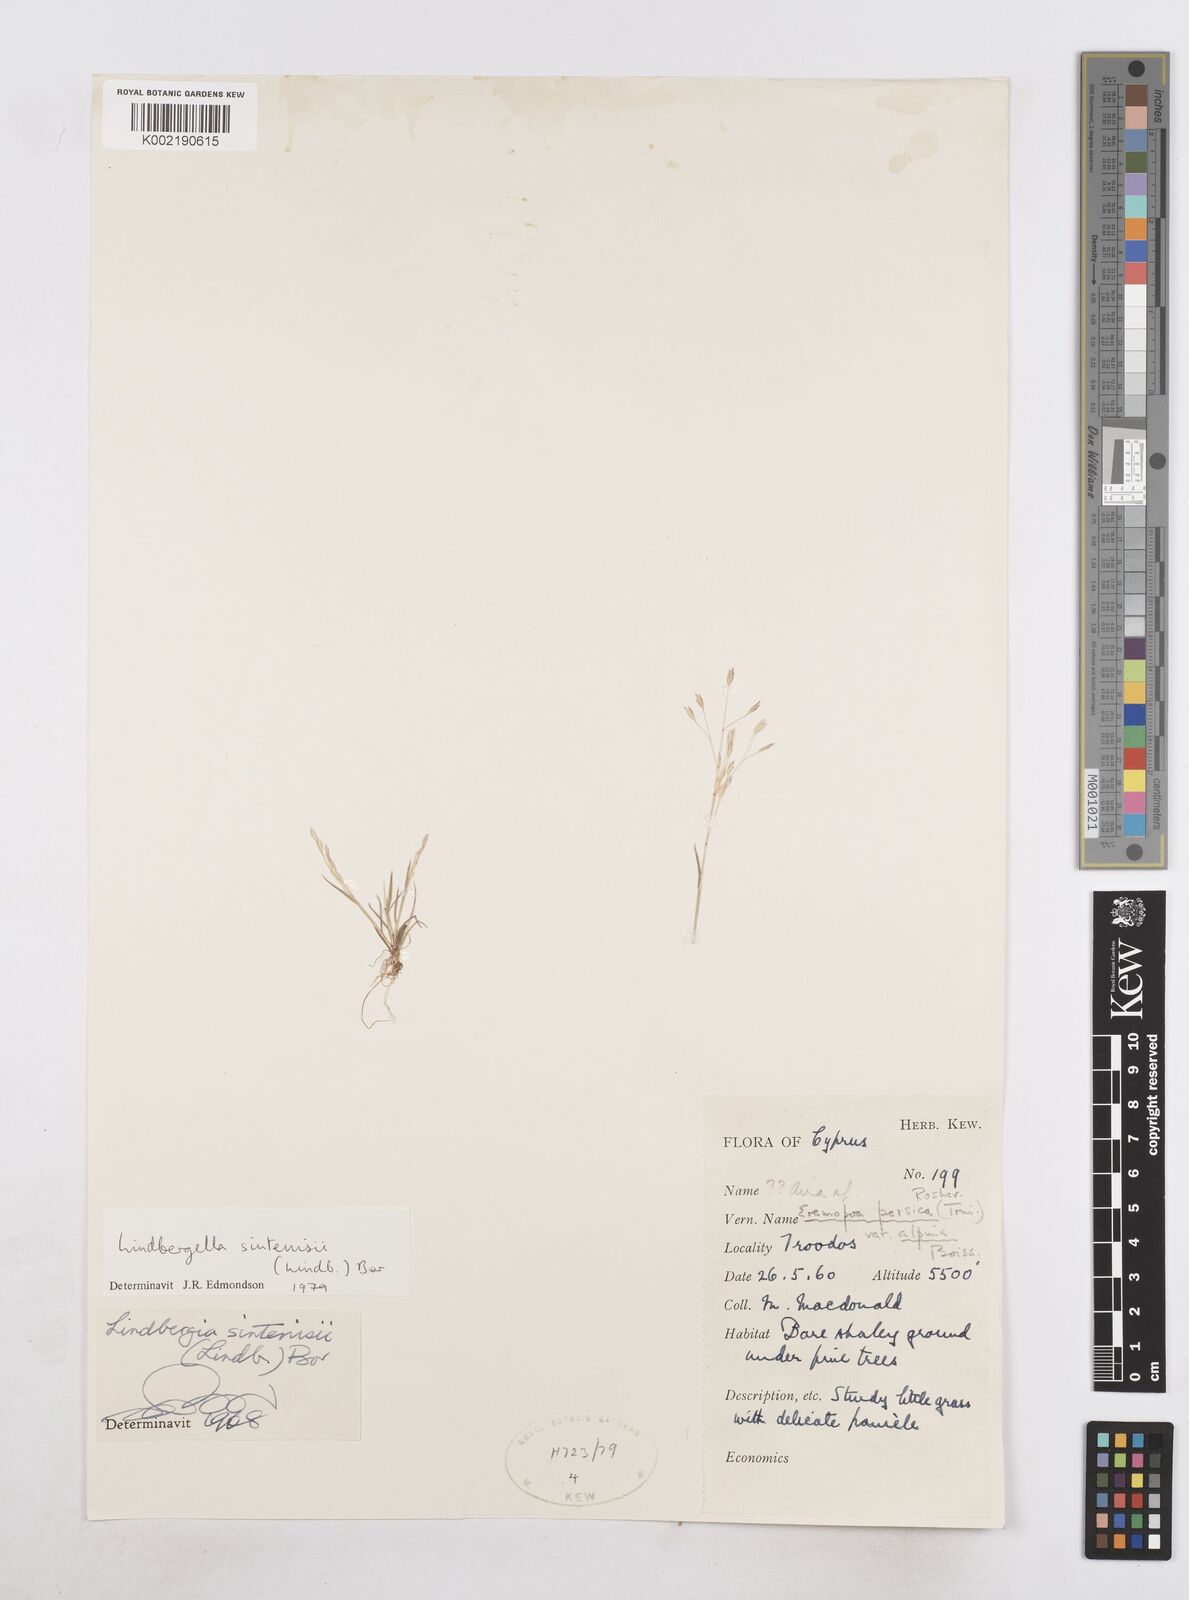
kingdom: Plantae
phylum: Tracheophyta
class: Liliopsida
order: Poales
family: Poaceae
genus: Poa
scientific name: Poa sintenisii
